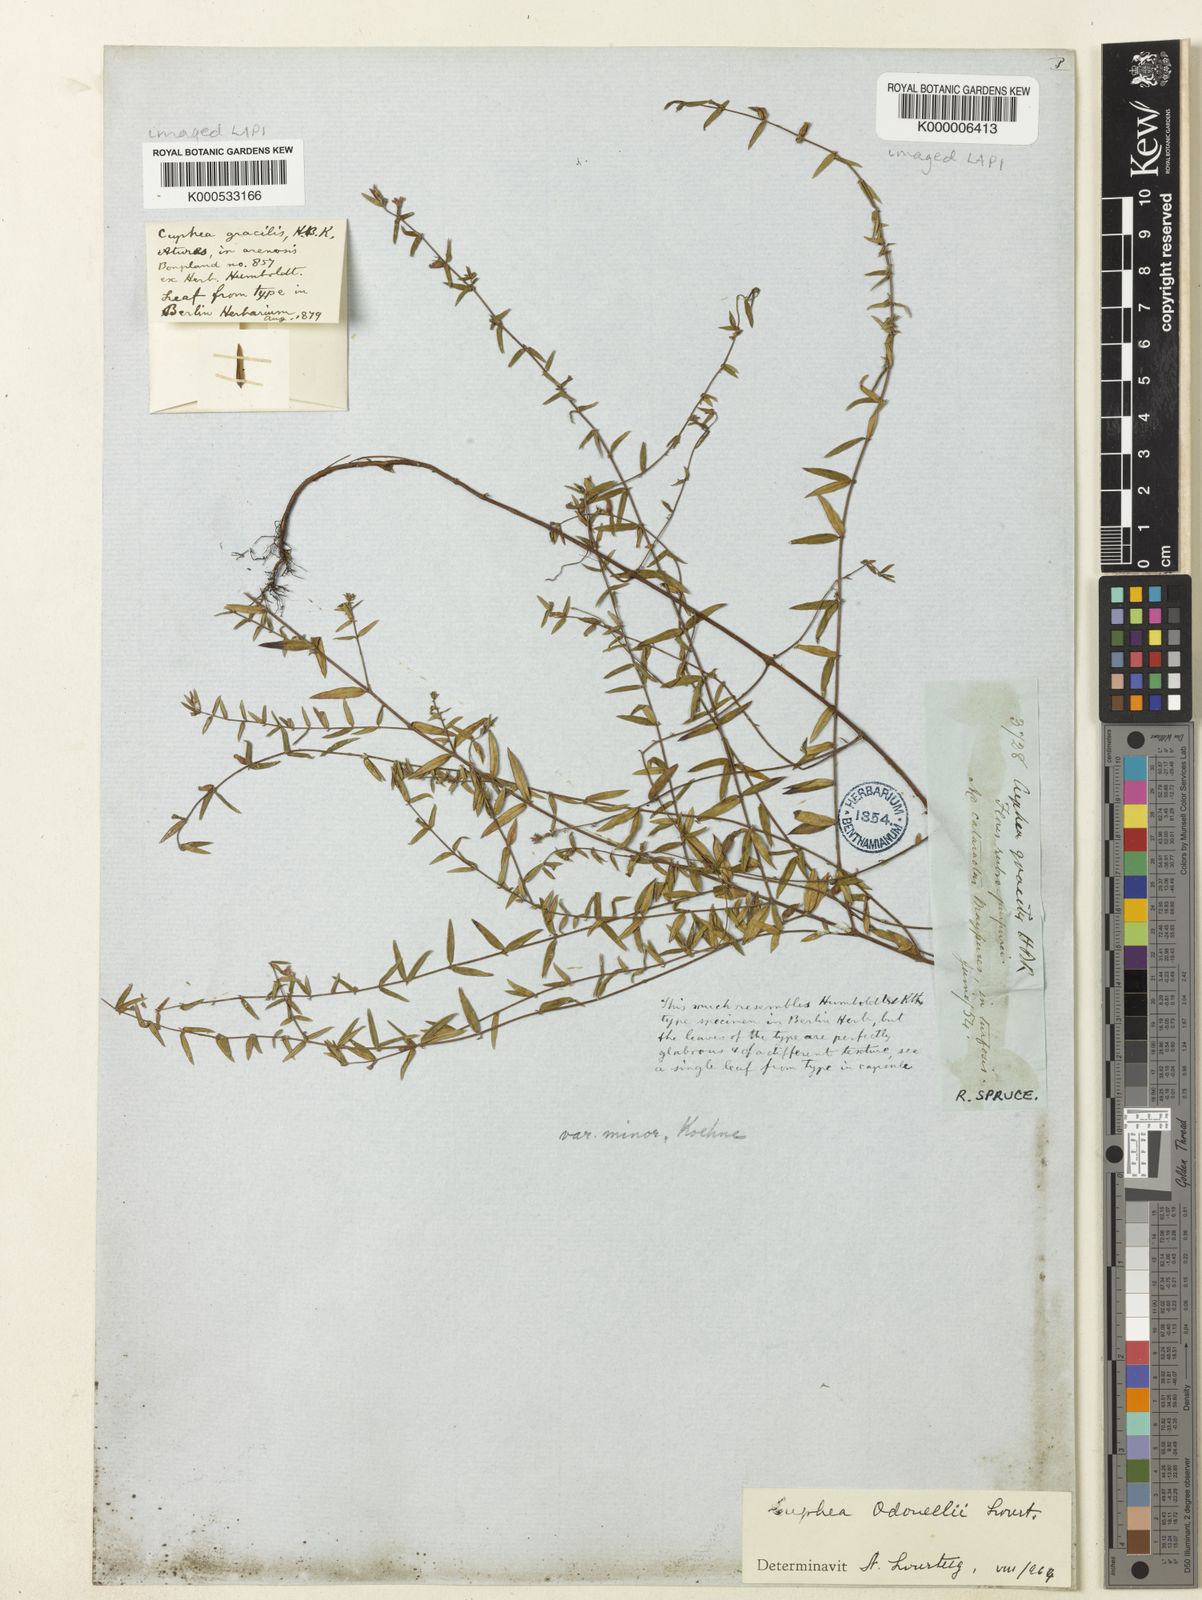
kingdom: Plantae
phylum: Tracheophyta
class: Magnoliopsida
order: Myrtales
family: Lythraceae
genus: Cuphea
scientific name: Cuphea gracilis
